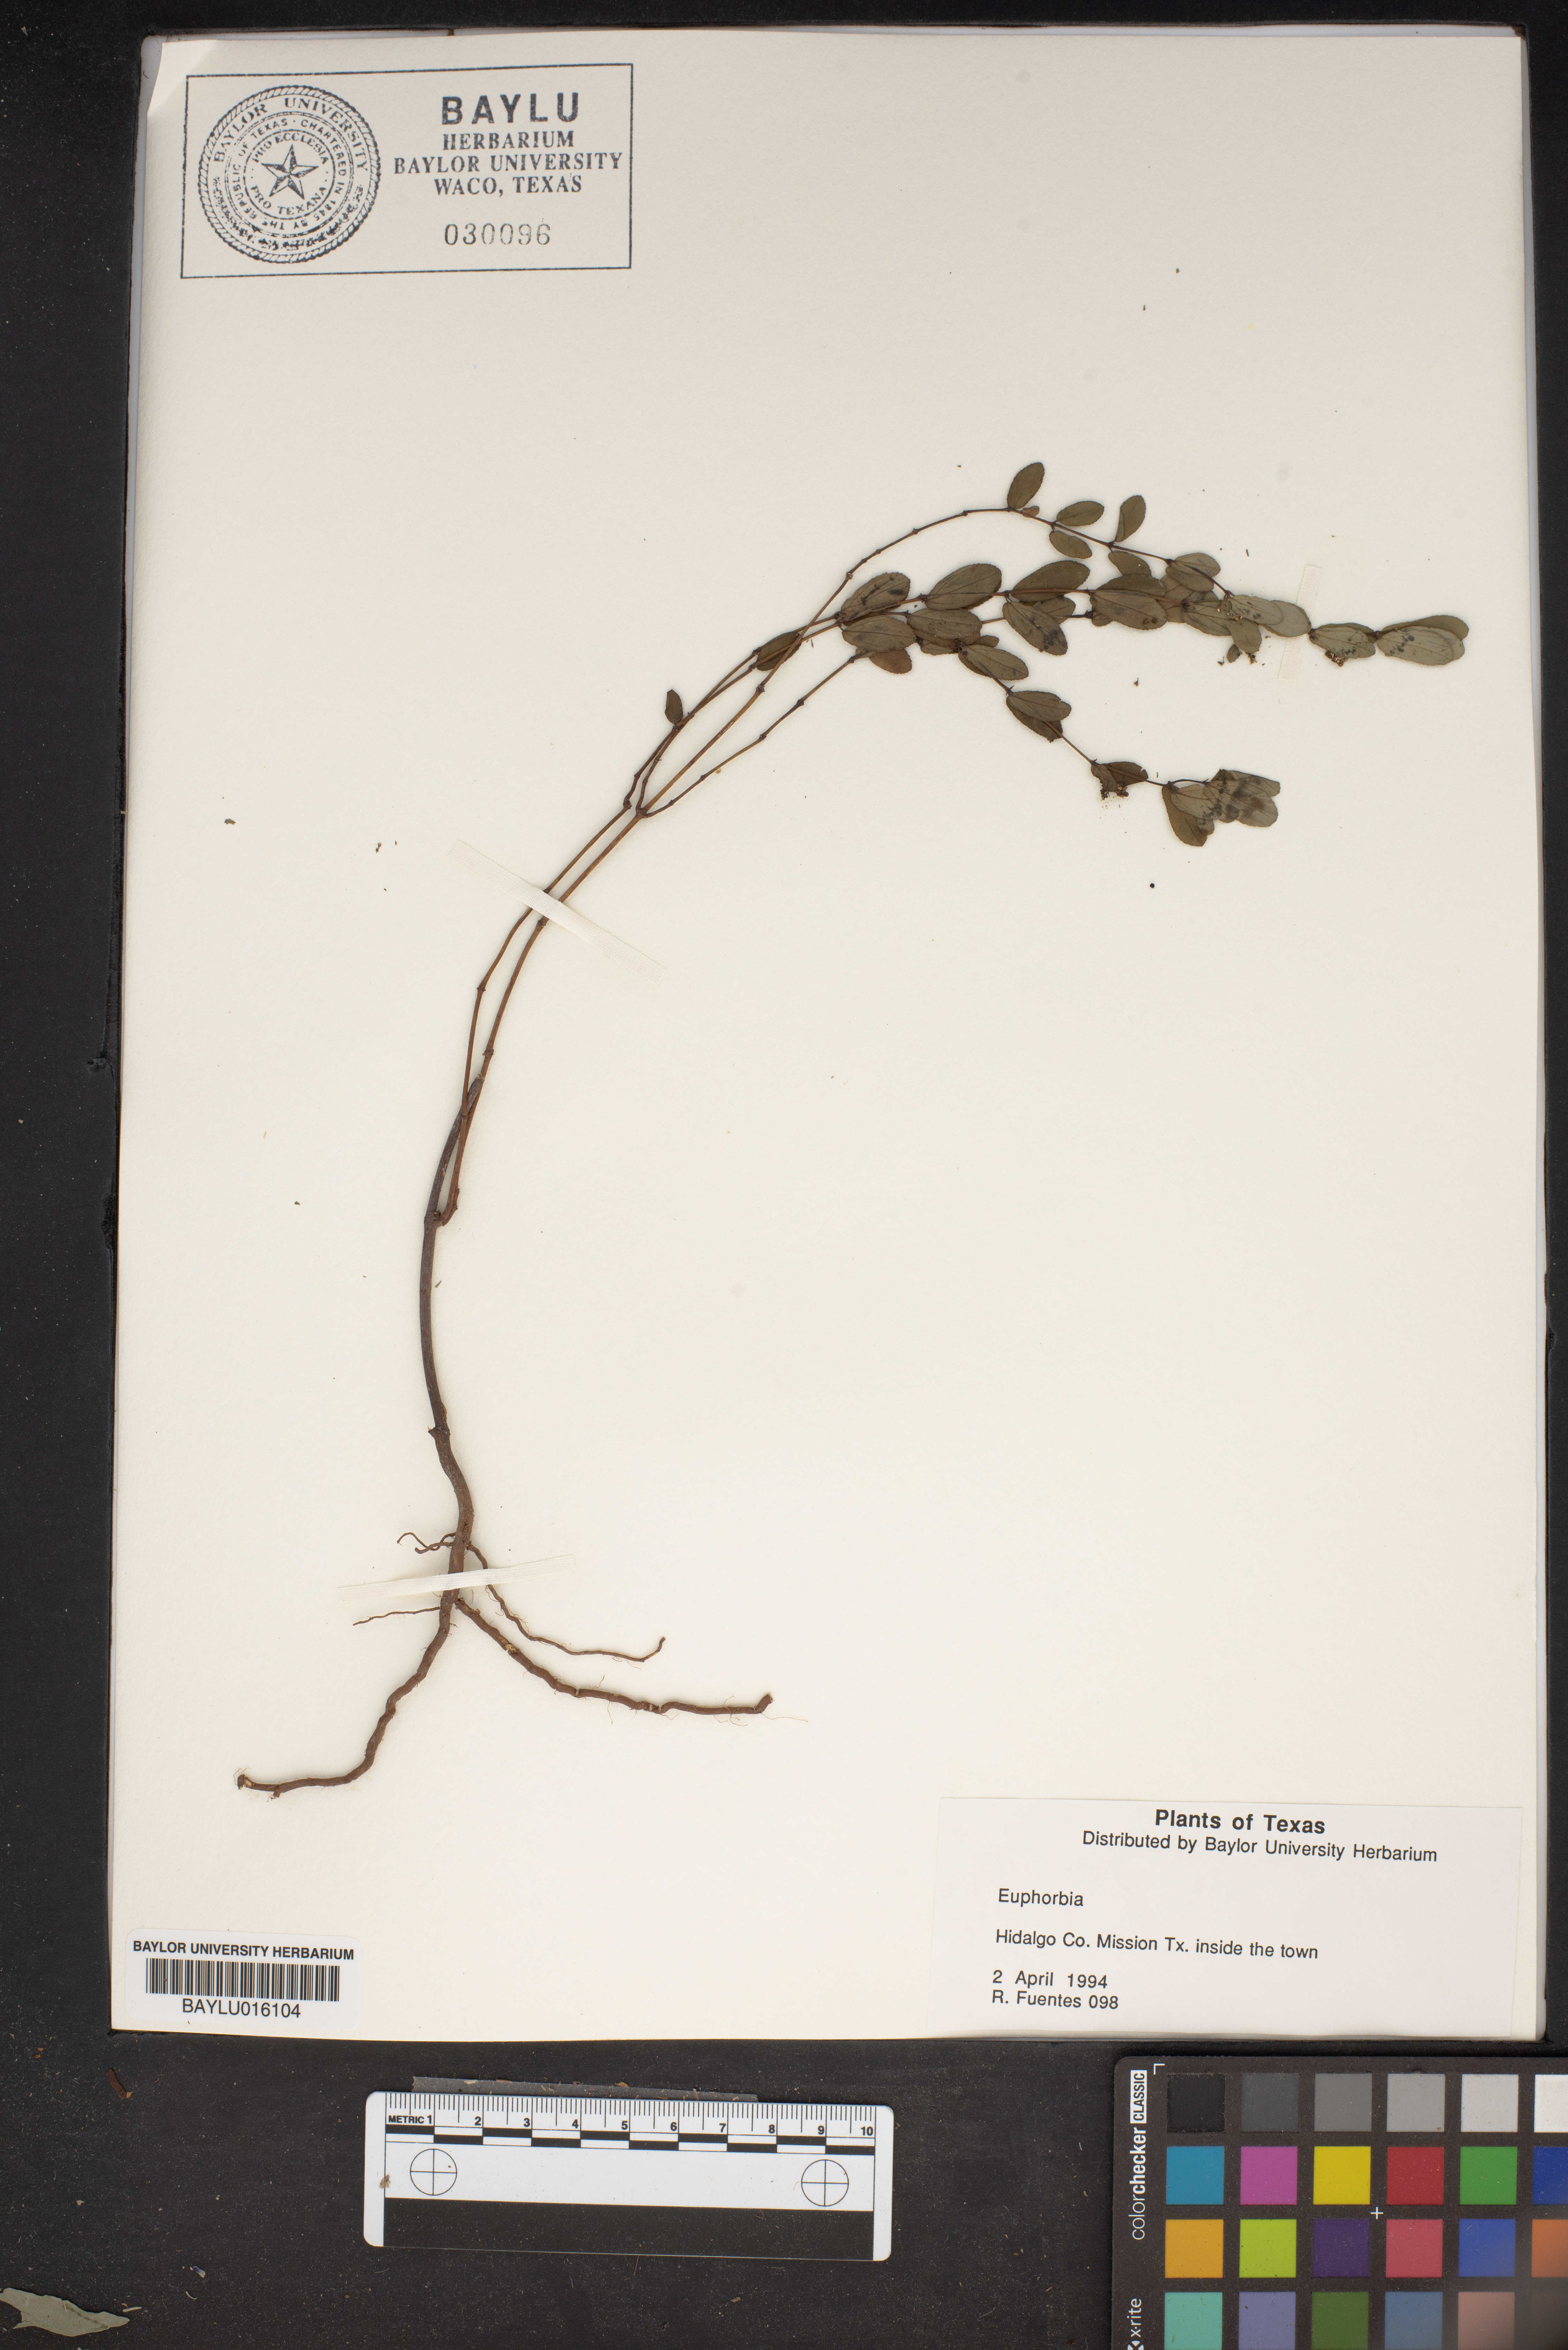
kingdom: Plantae
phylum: Tracheophyta
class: Magnoliopsida
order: Malpighiales
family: Euphorbiaceae
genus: Euphorbia
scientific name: Euphorbia
